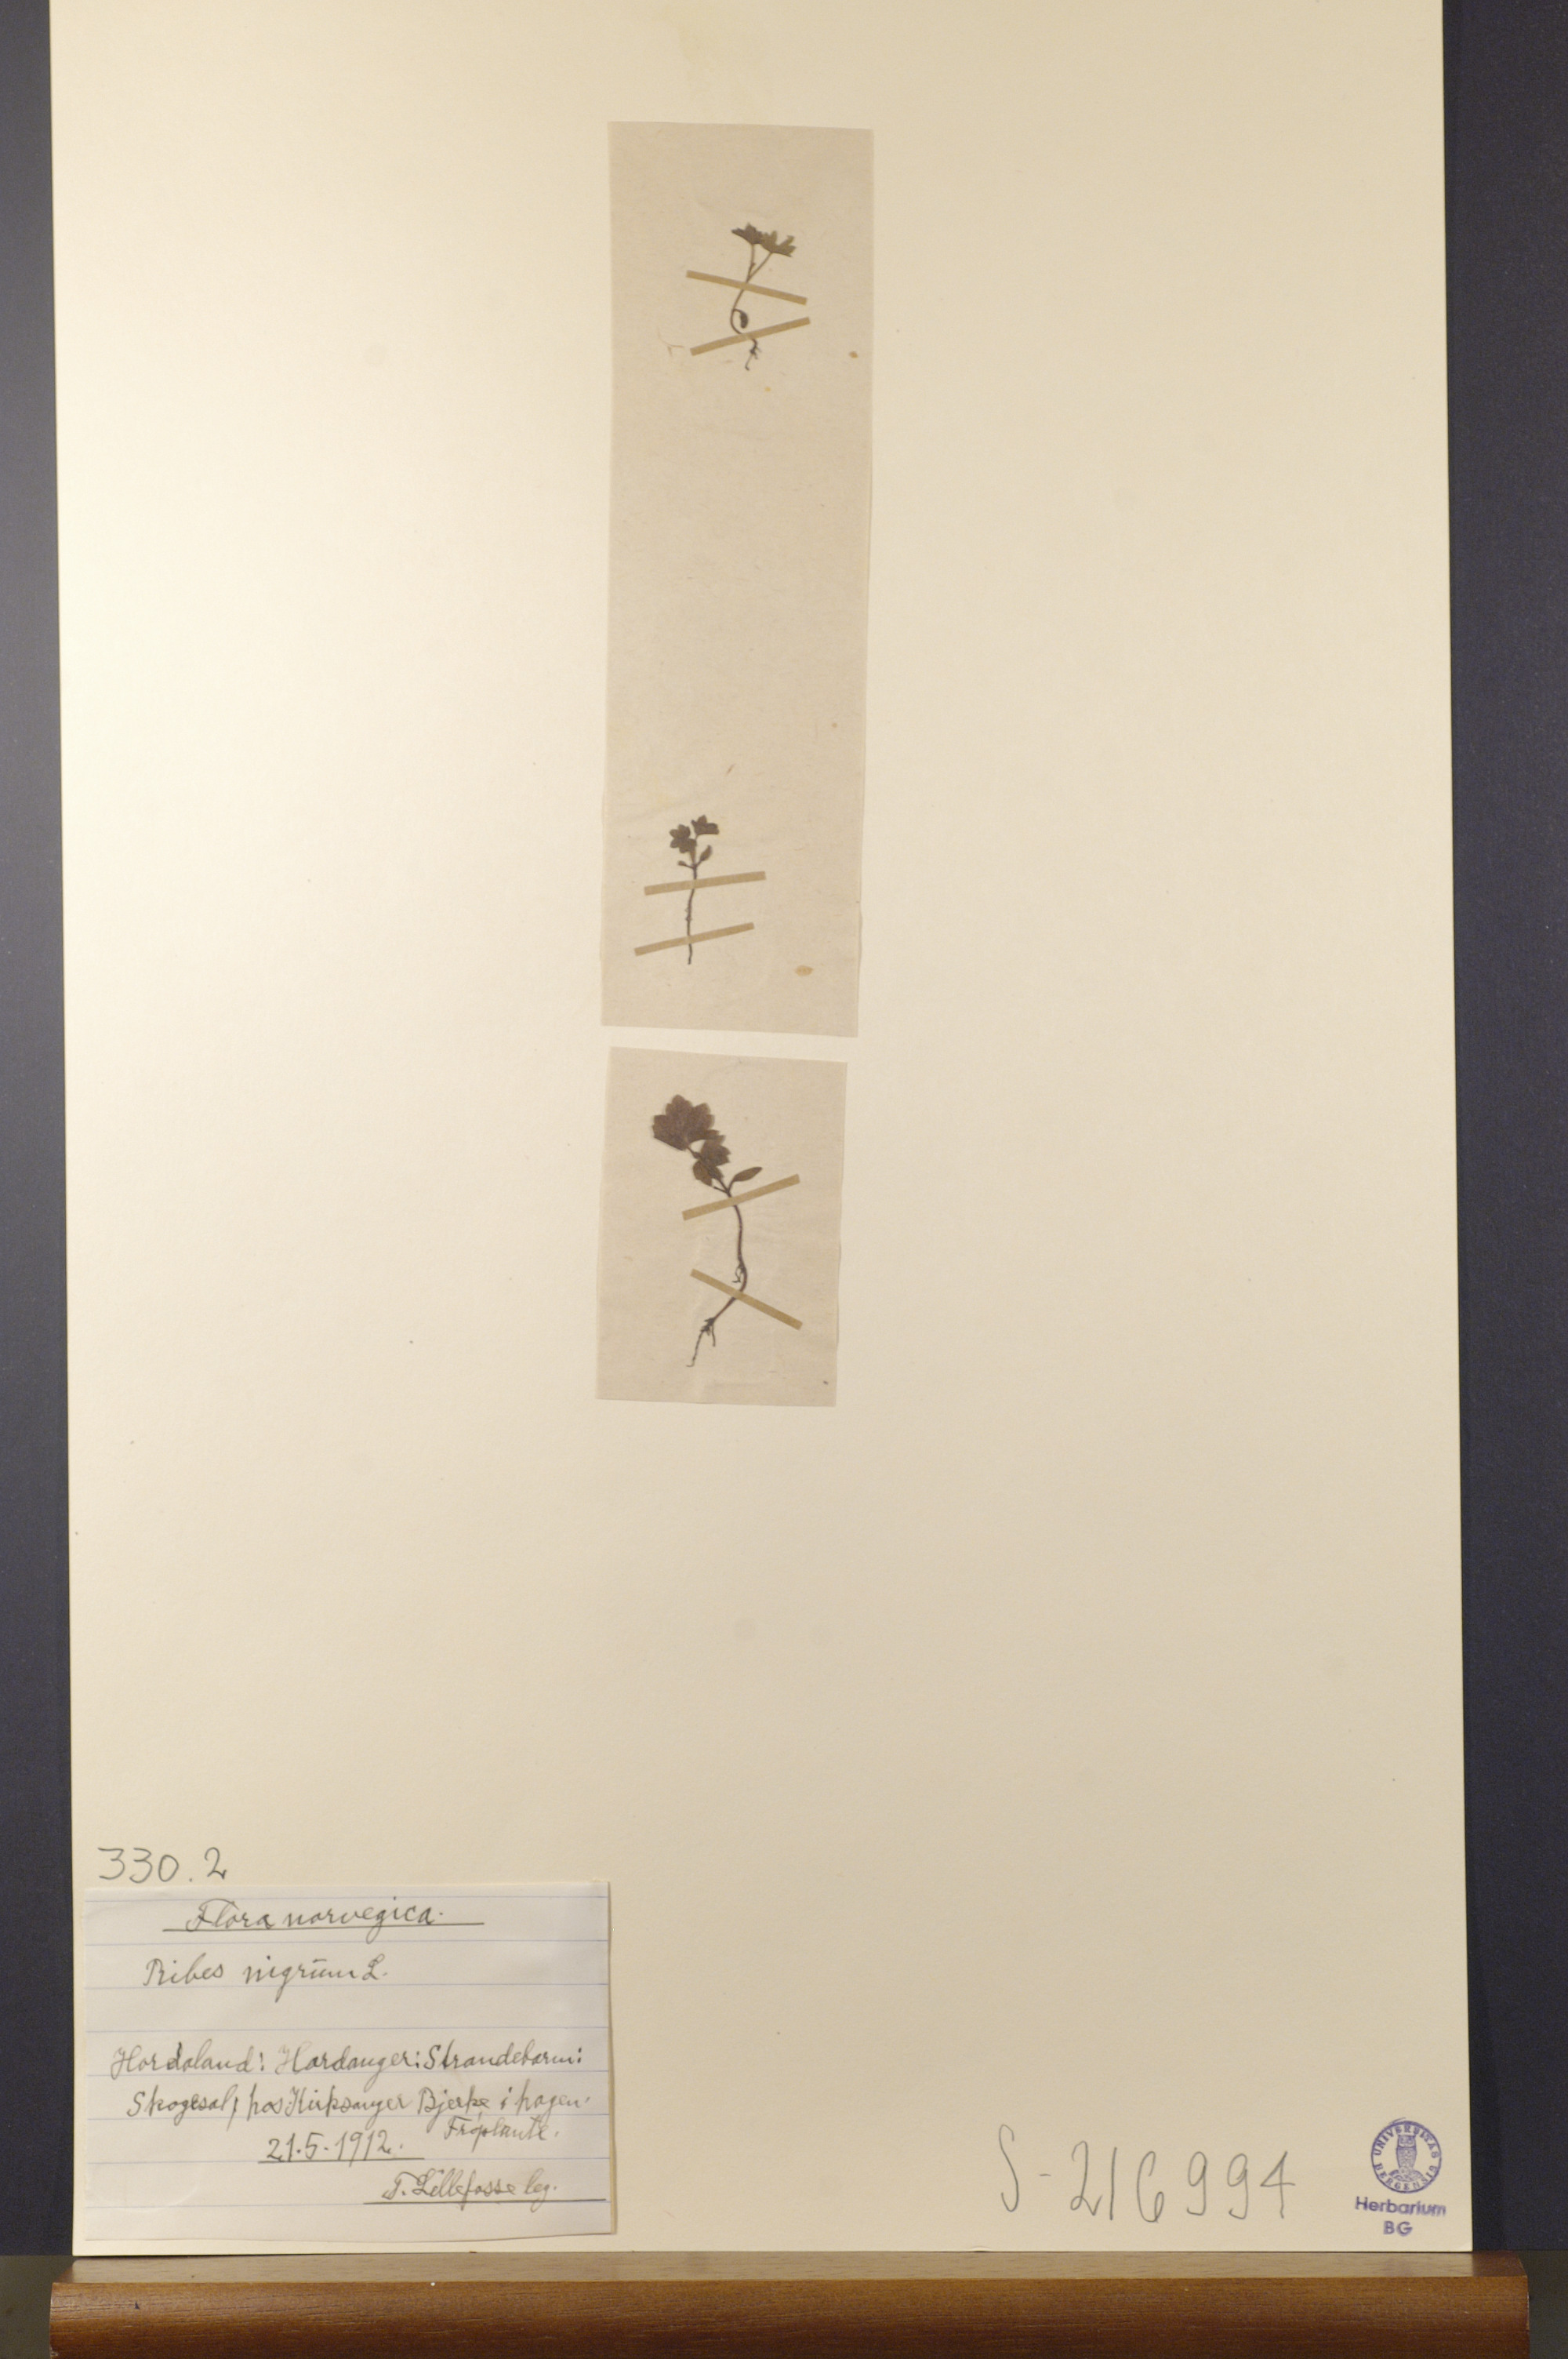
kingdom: Plantae
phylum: Tracheophyta
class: Magnoliopsida
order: Saxifragales
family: Grossulariaceae
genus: Ribes
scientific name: Ribes nigrum
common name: Black currant
